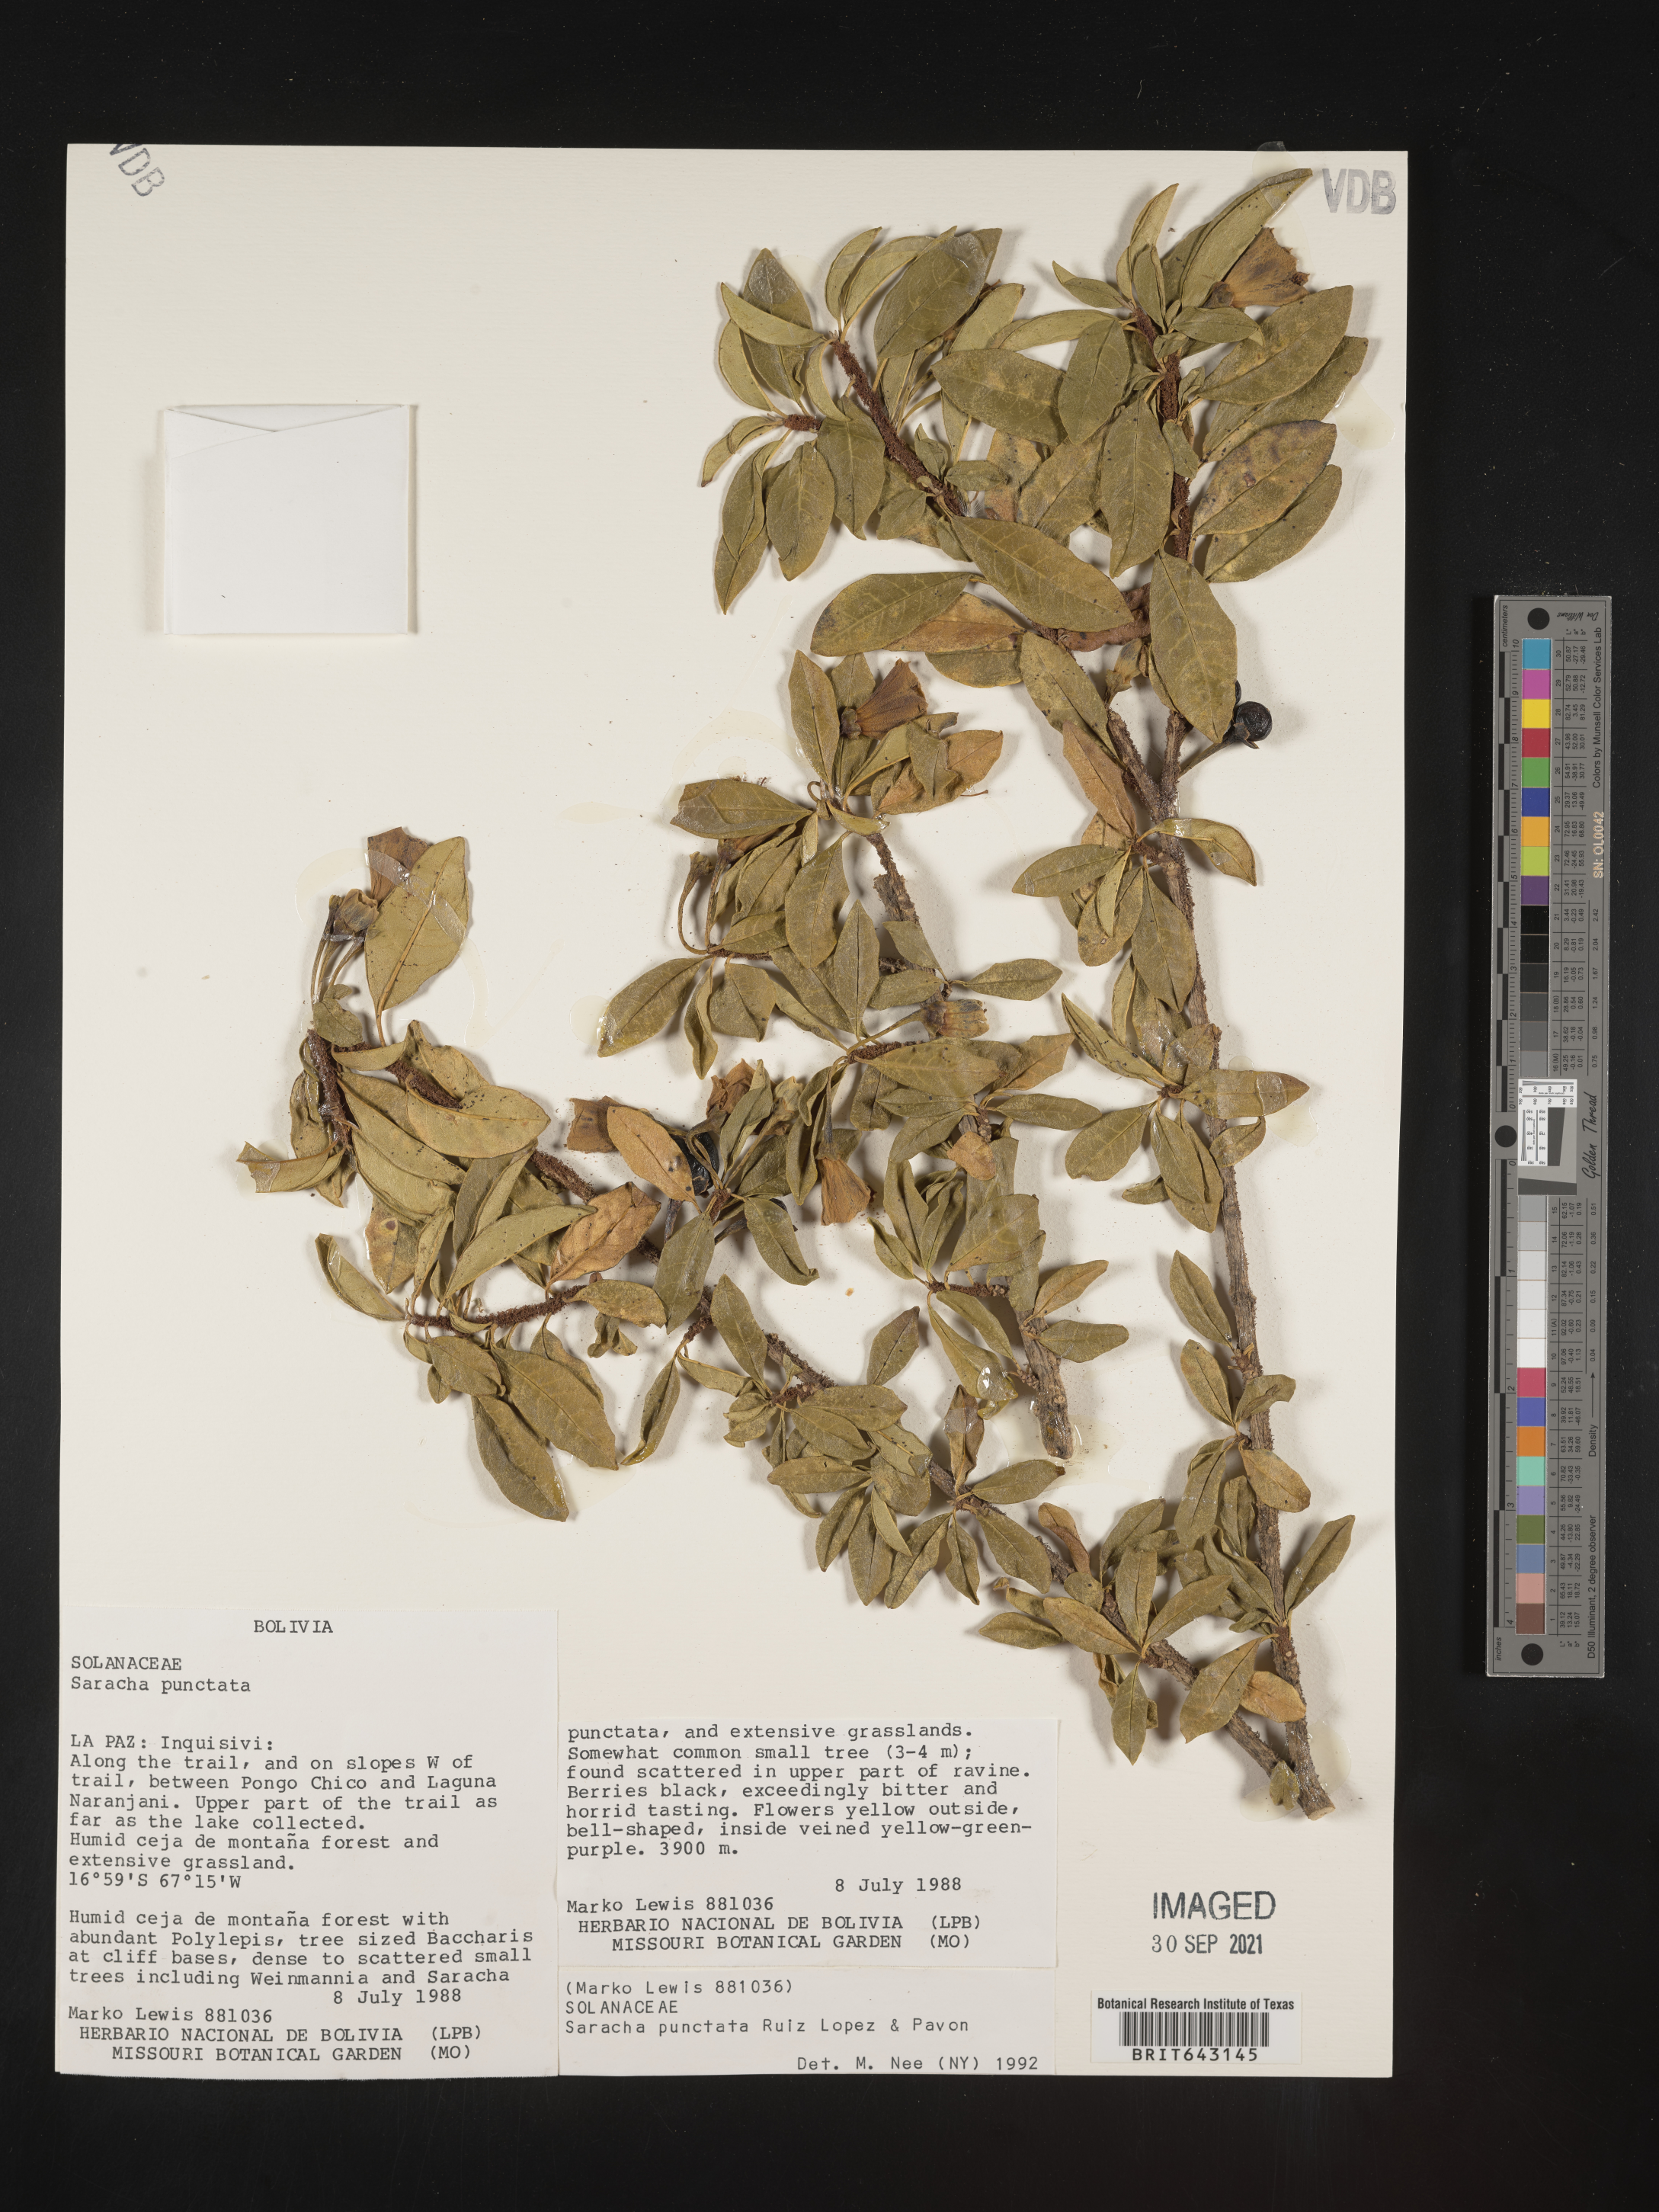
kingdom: Plantae
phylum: Tracheophyta
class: Magnoliopsida
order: Solanales
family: Solanaceae
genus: Saracha
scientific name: Saracha
